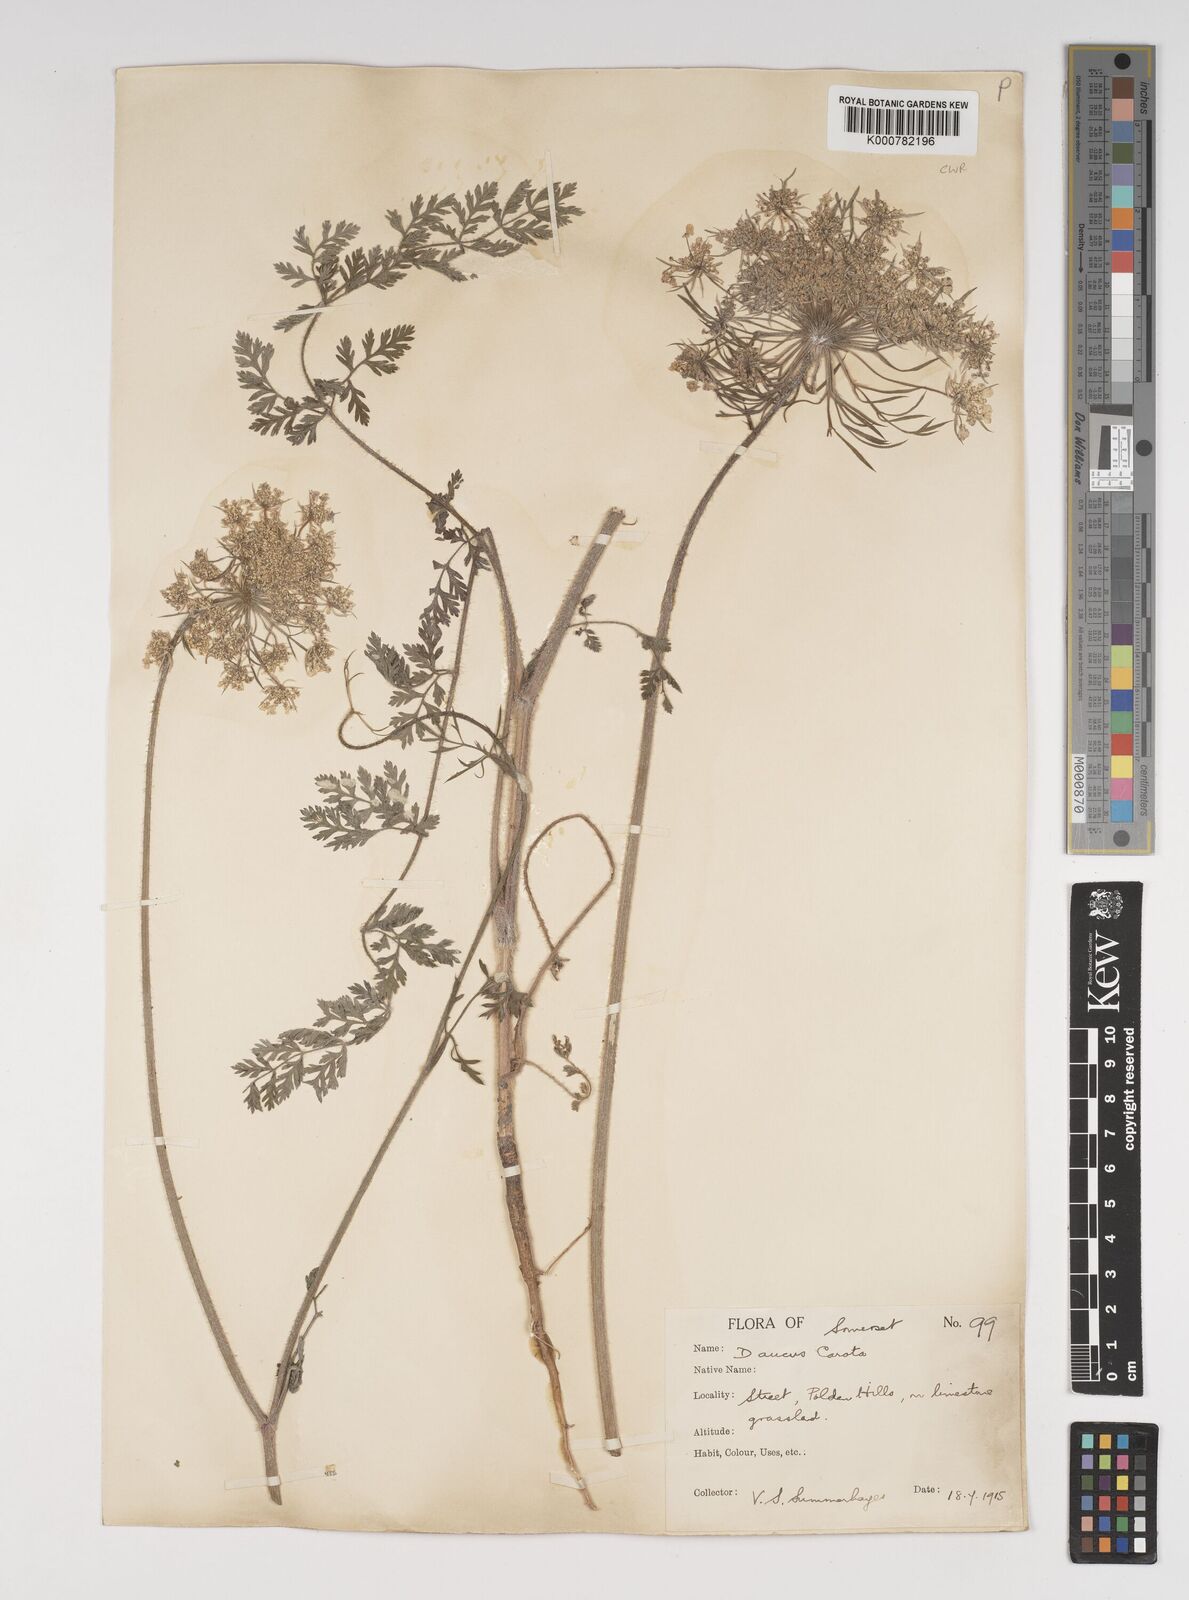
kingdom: Plantae
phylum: Tracheophyta
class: Magnoliopsida
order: Apiales
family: Apiaceae
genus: Daucus
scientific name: Daucus carota
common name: Wild carrot
